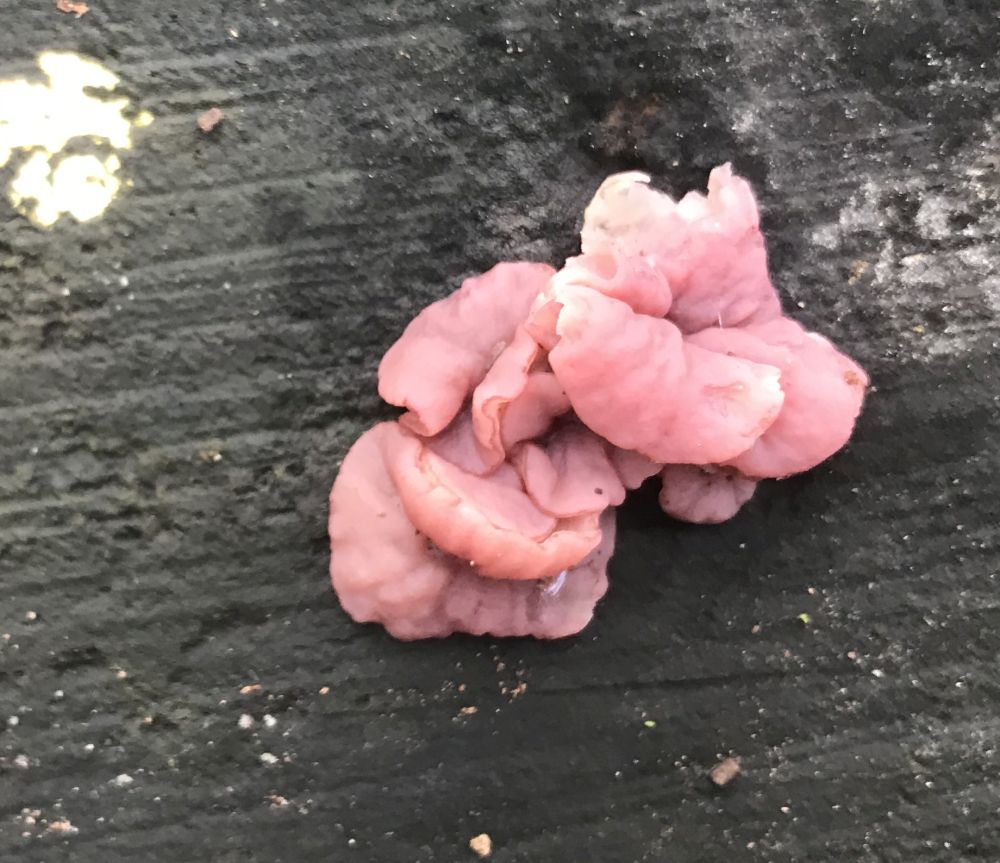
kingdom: Fungi
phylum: Ascomycota
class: Leotiomycetes
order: Helotiales
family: Gelatinodiscaceae
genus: Ascocoryne
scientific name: Ascocoryne cylichnium
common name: stor sejskive
